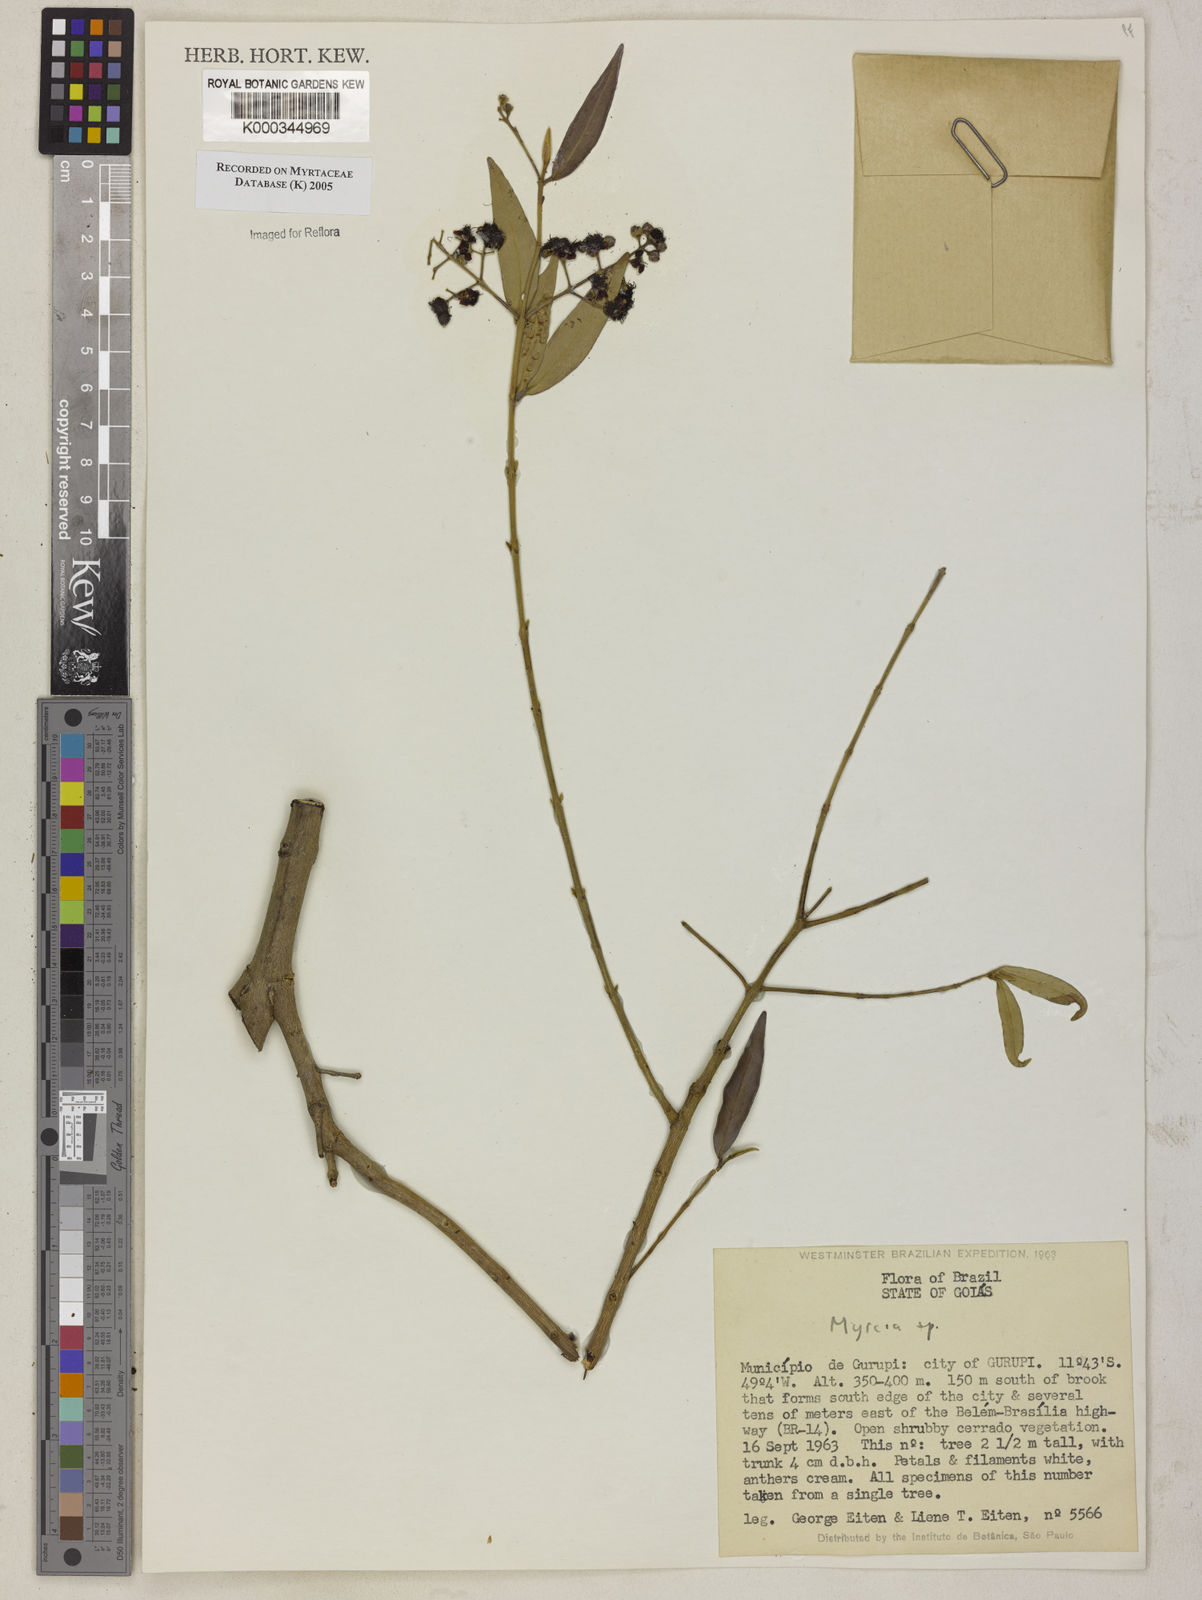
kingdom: Plantae
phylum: Tracheophyta
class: Magnoliopsida
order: Myrtales
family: Myrtaceae
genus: Myrcia
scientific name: Myrcia
